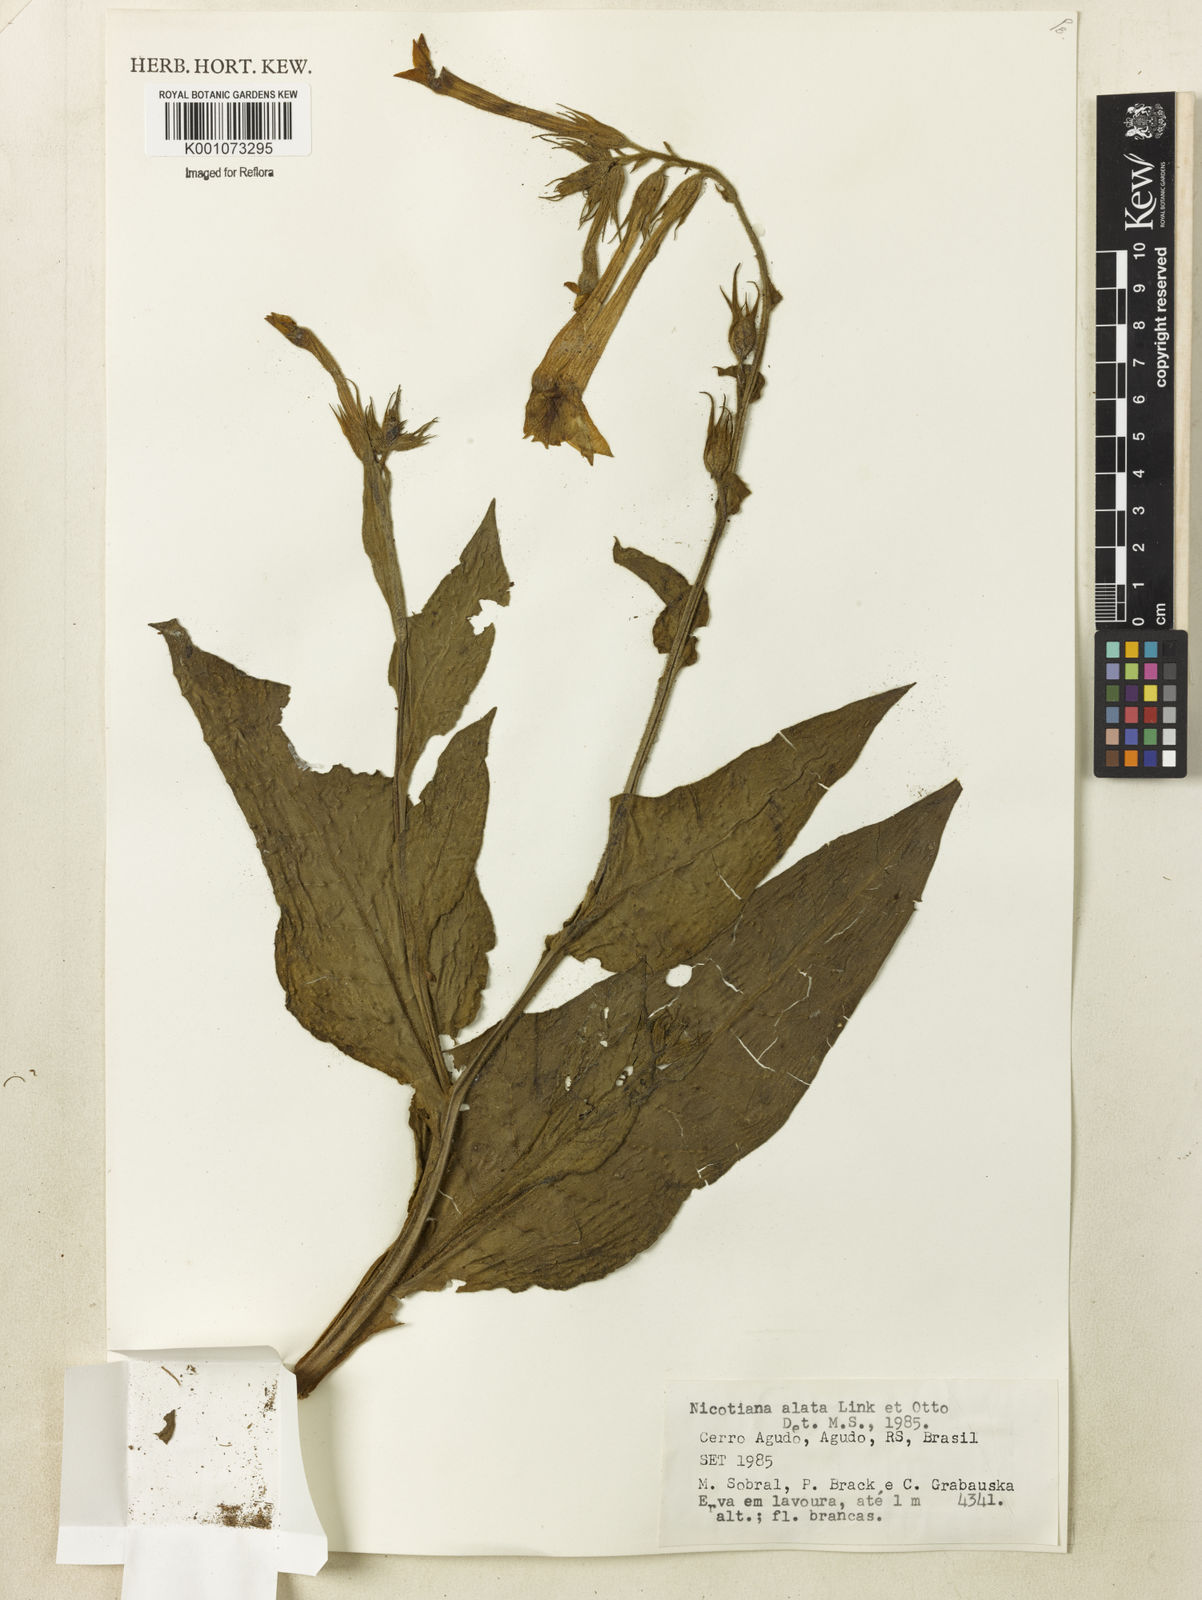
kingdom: Plantae
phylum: Tracheophyta
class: Magnoliopsida
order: Solanales
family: Solanaceae
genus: Nicotiana
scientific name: Nicotiana alata
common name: Jasmine tobacco
